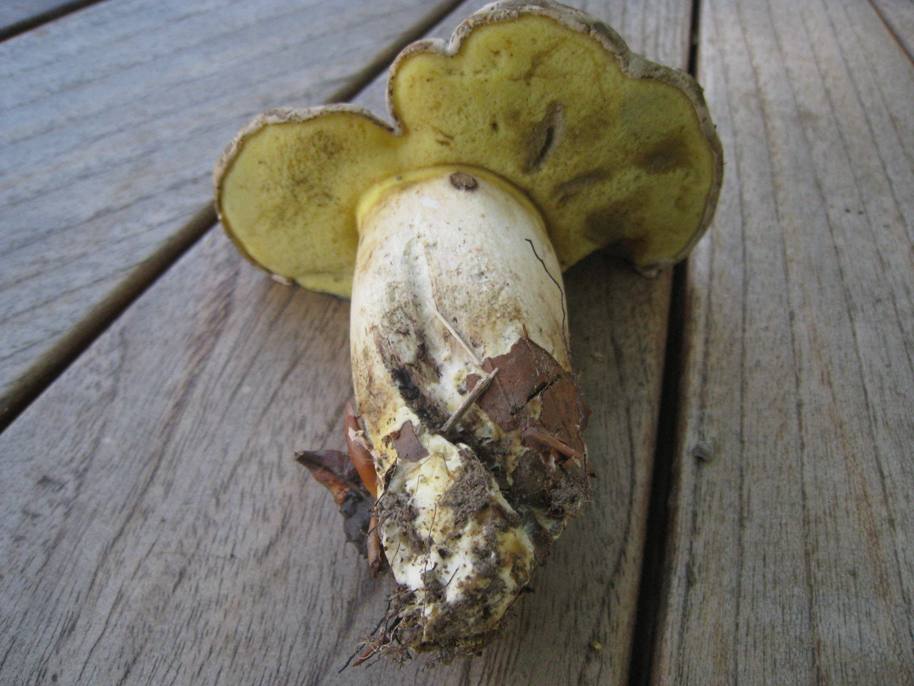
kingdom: Fungi
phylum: Basidiomycota
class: Agaricomycetes
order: Boletales
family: Boletaceae
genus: Caloboletus
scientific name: Caloboletus radicans
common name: rod-rørhat
